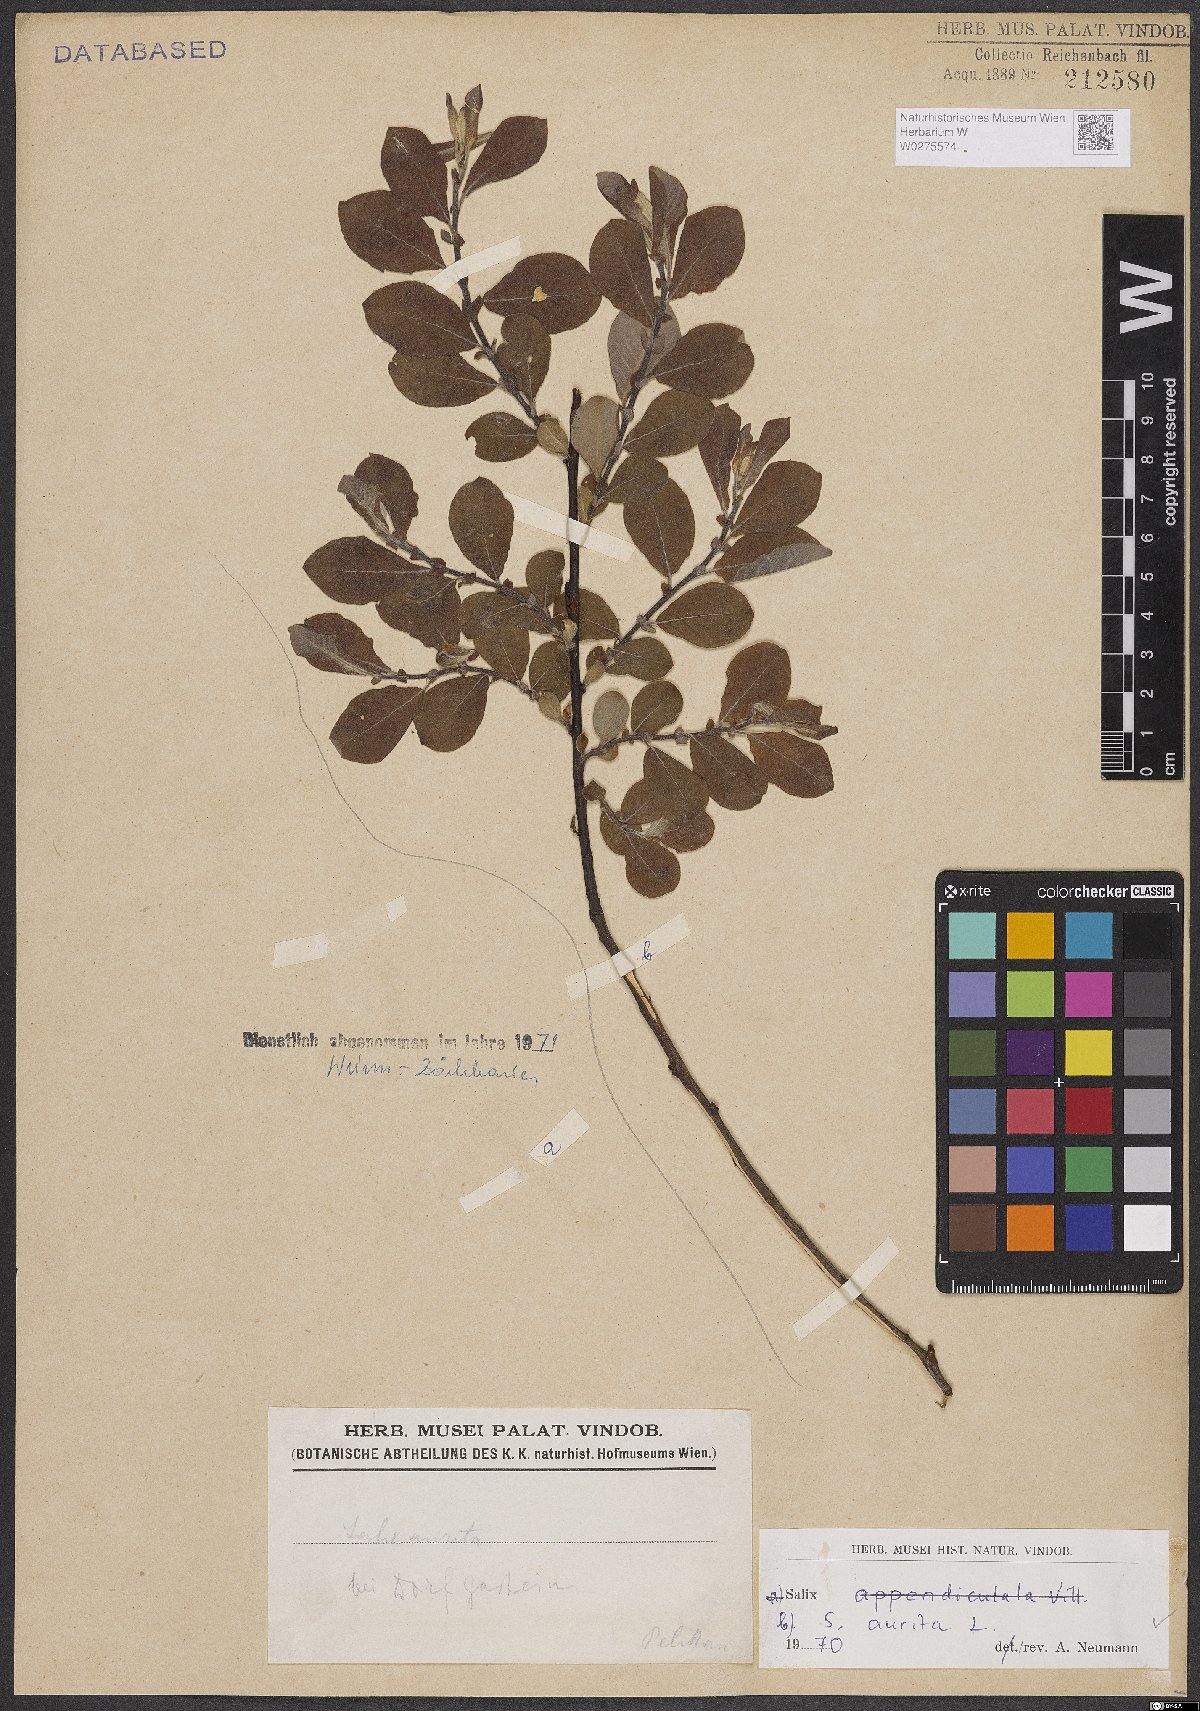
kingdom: Plantae
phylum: Tracheophyta
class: Magnoliopsida
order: Malpighiales
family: Salicaceae
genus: Salix
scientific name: Salix aurita
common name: Eared willow
